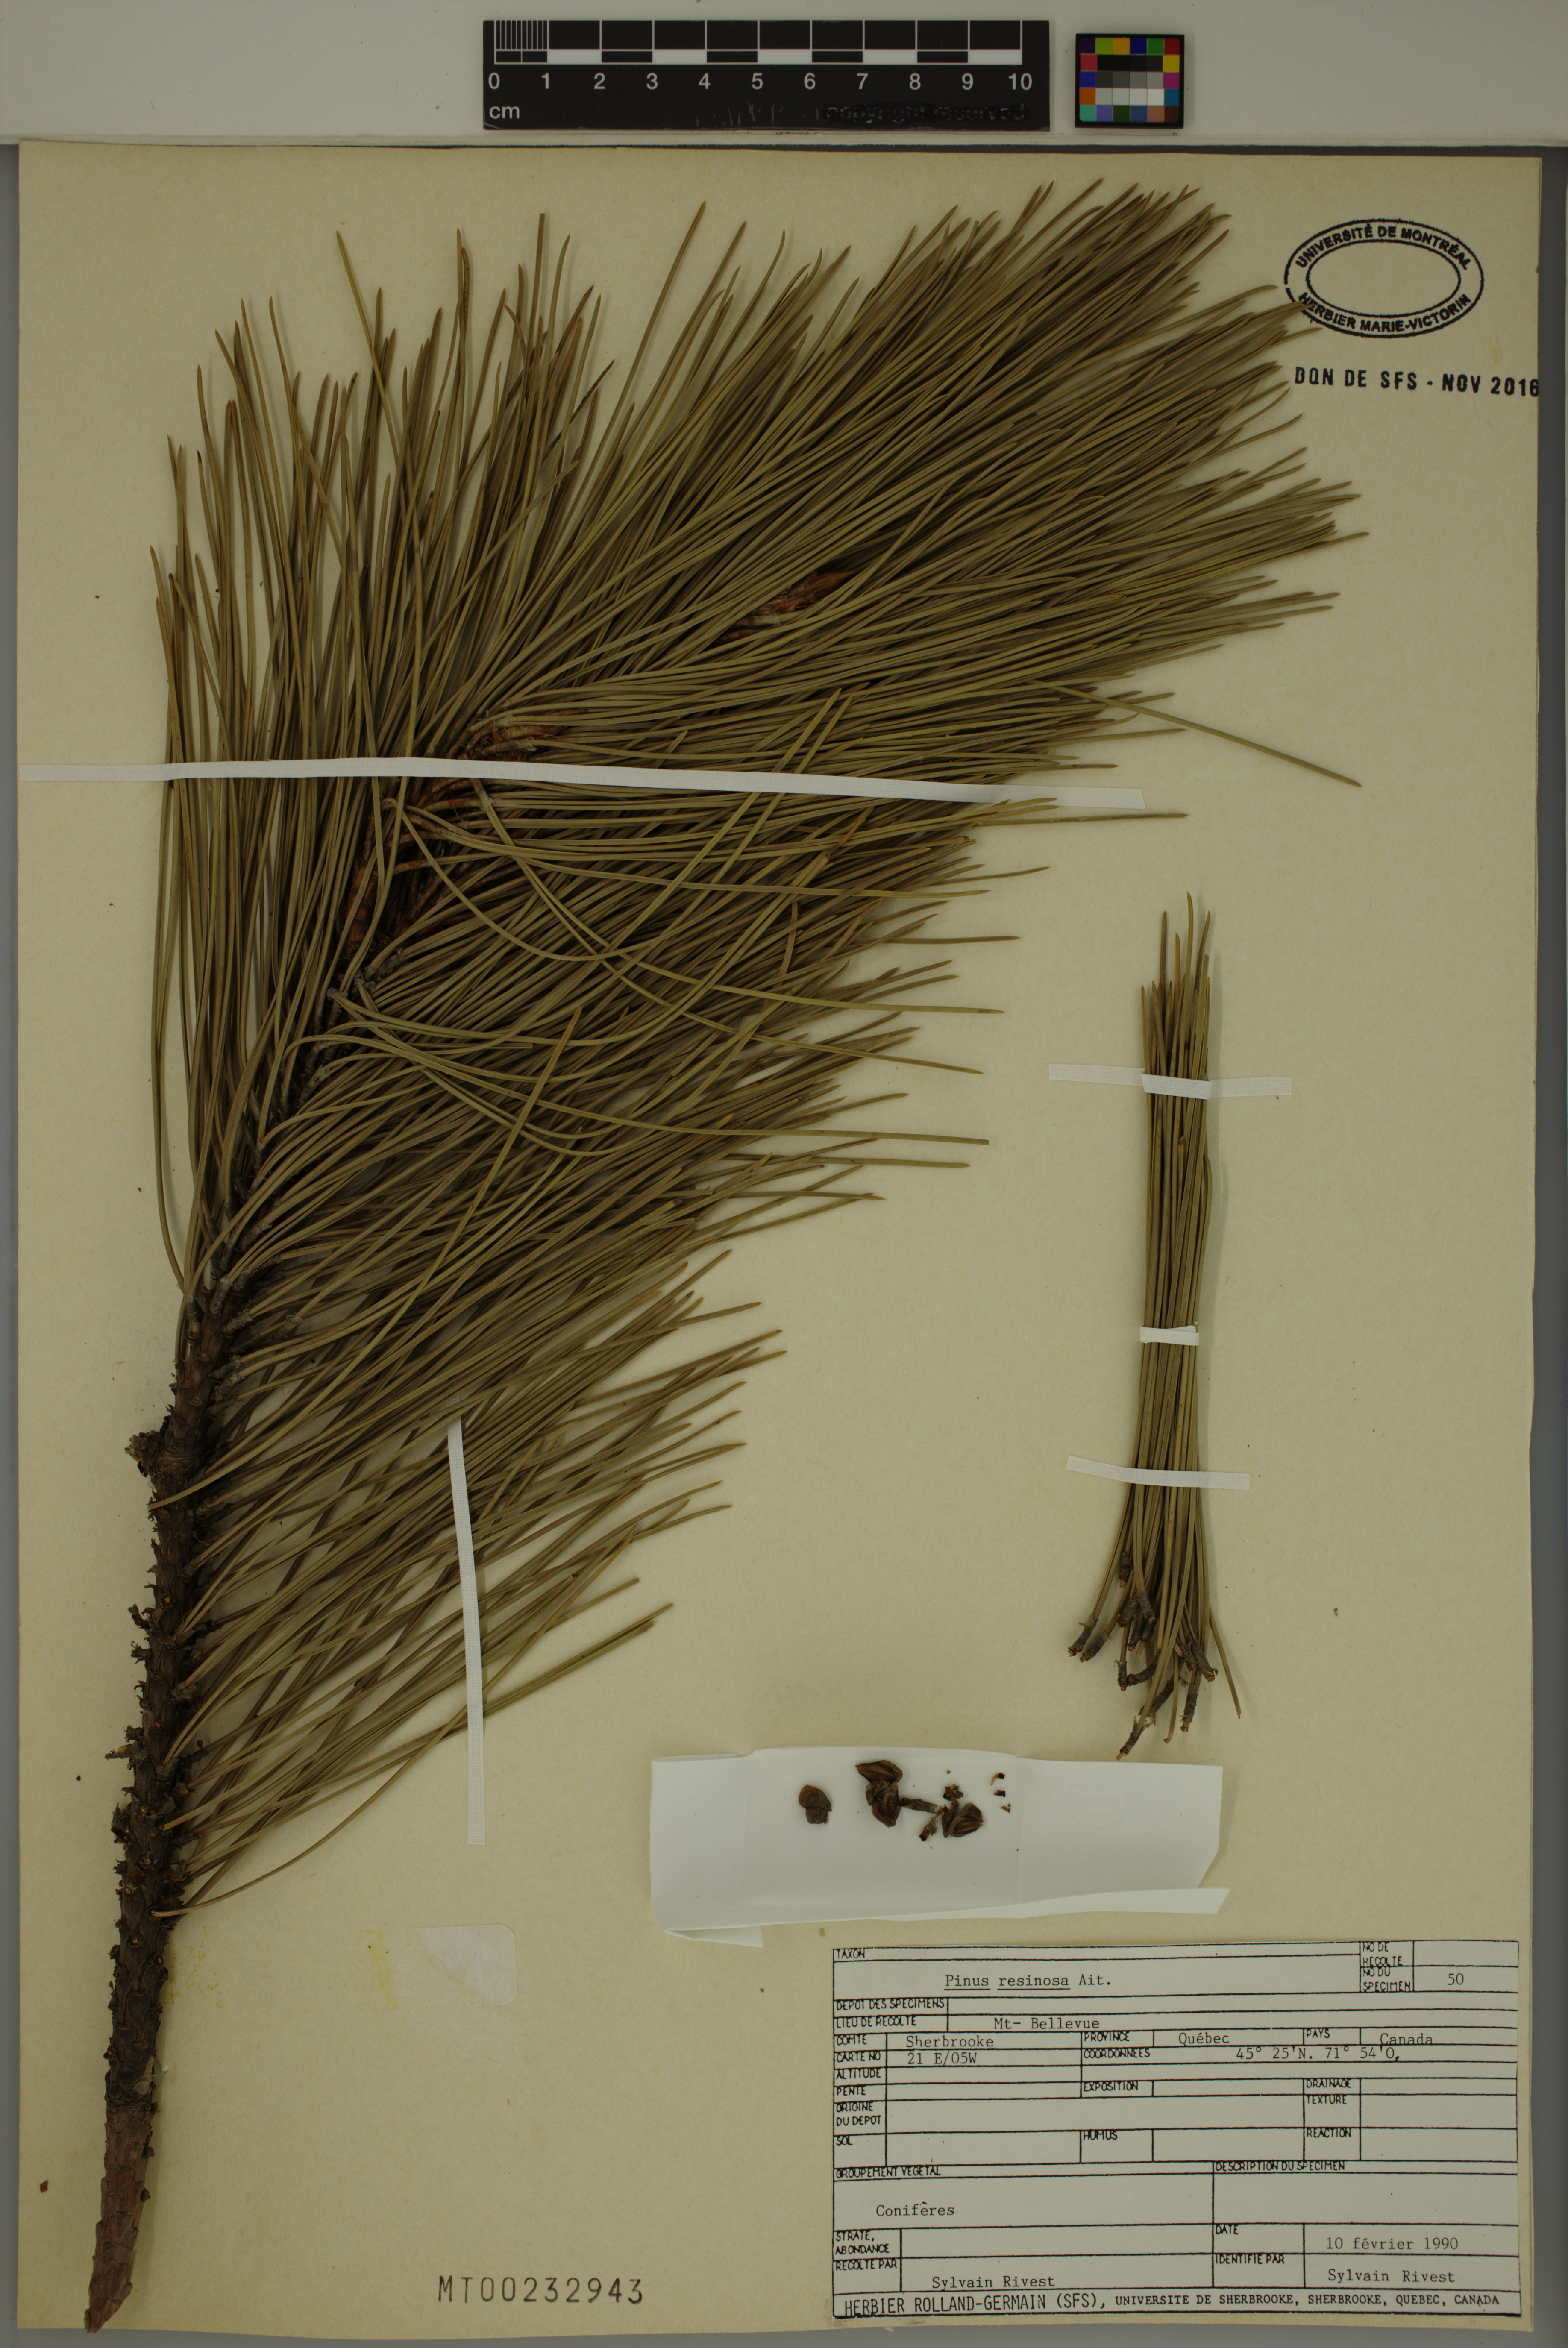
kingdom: Plantae
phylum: Tracheophyta
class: Pinopsida
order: Pinales
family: Pinaceae
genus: Pinus
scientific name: Pinus resinosa
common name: Norway pine
